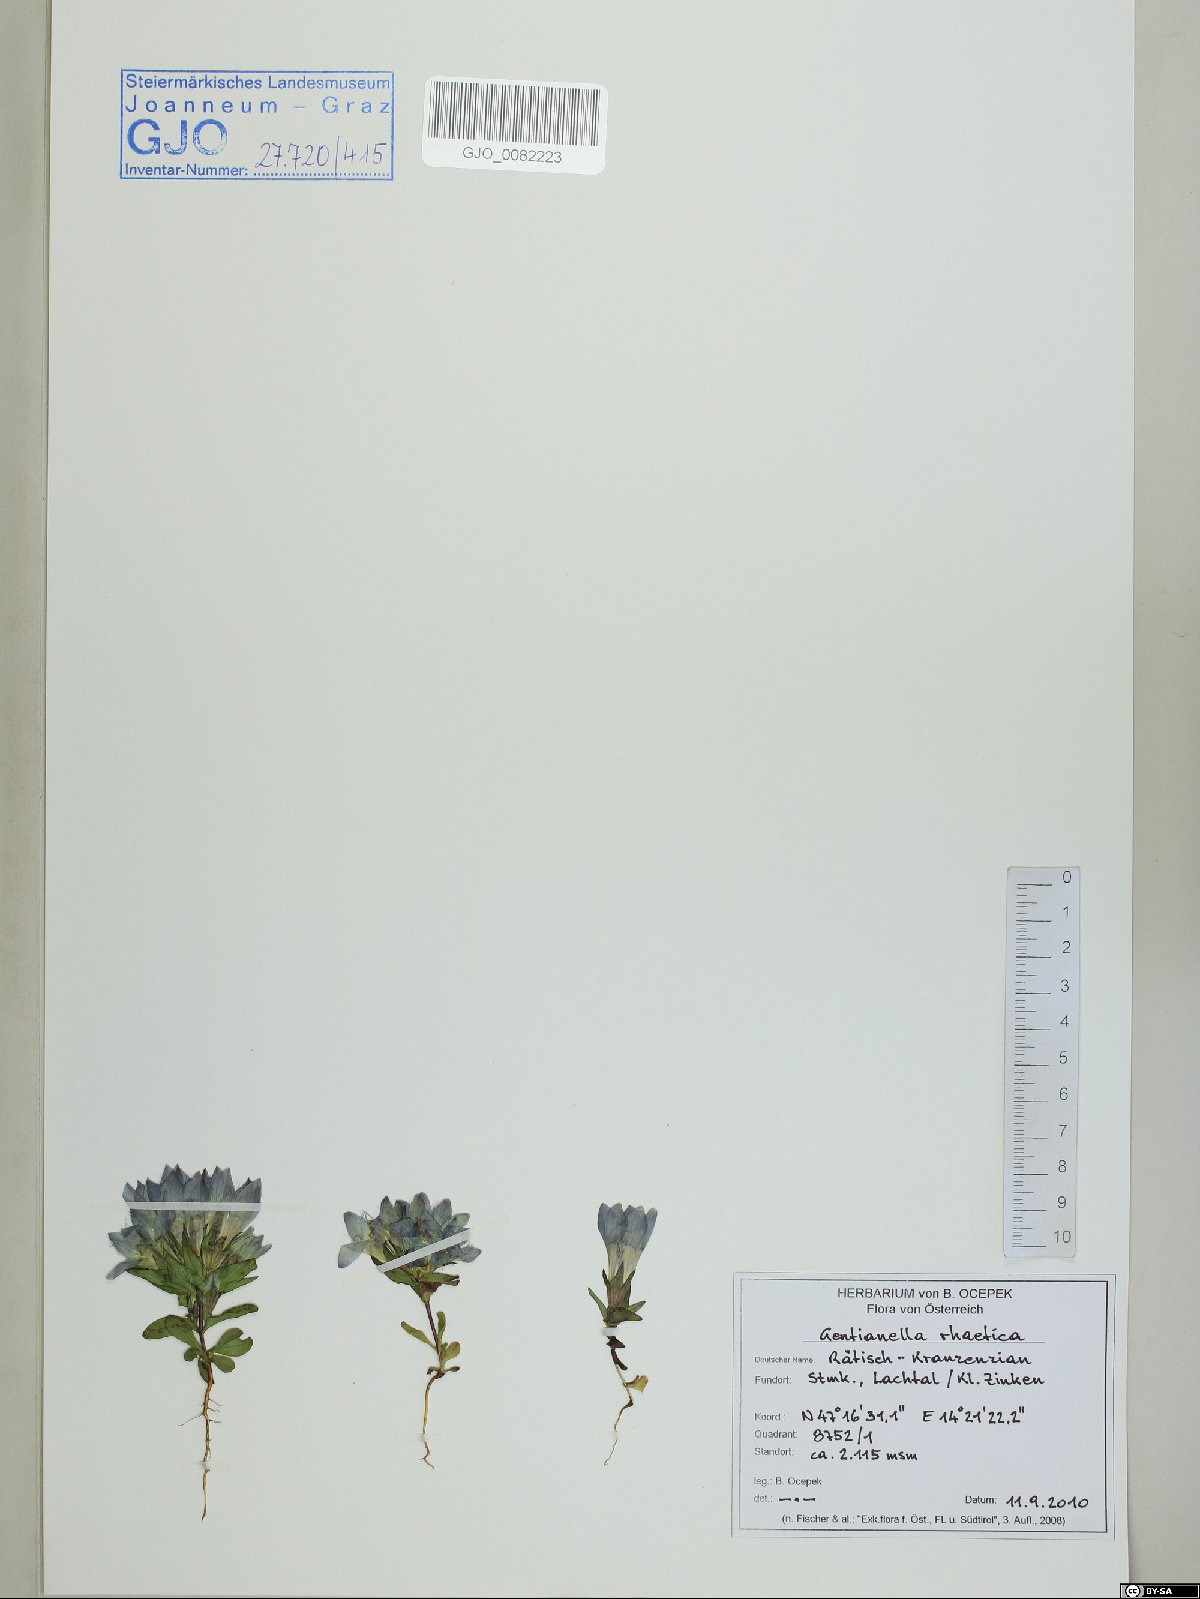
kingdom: Plantae
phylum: Tracheophyta
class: Magnoliopsida
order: Gentianales
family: Gentianaceae
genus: Gentianella
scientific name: Gentianella rhaetica
